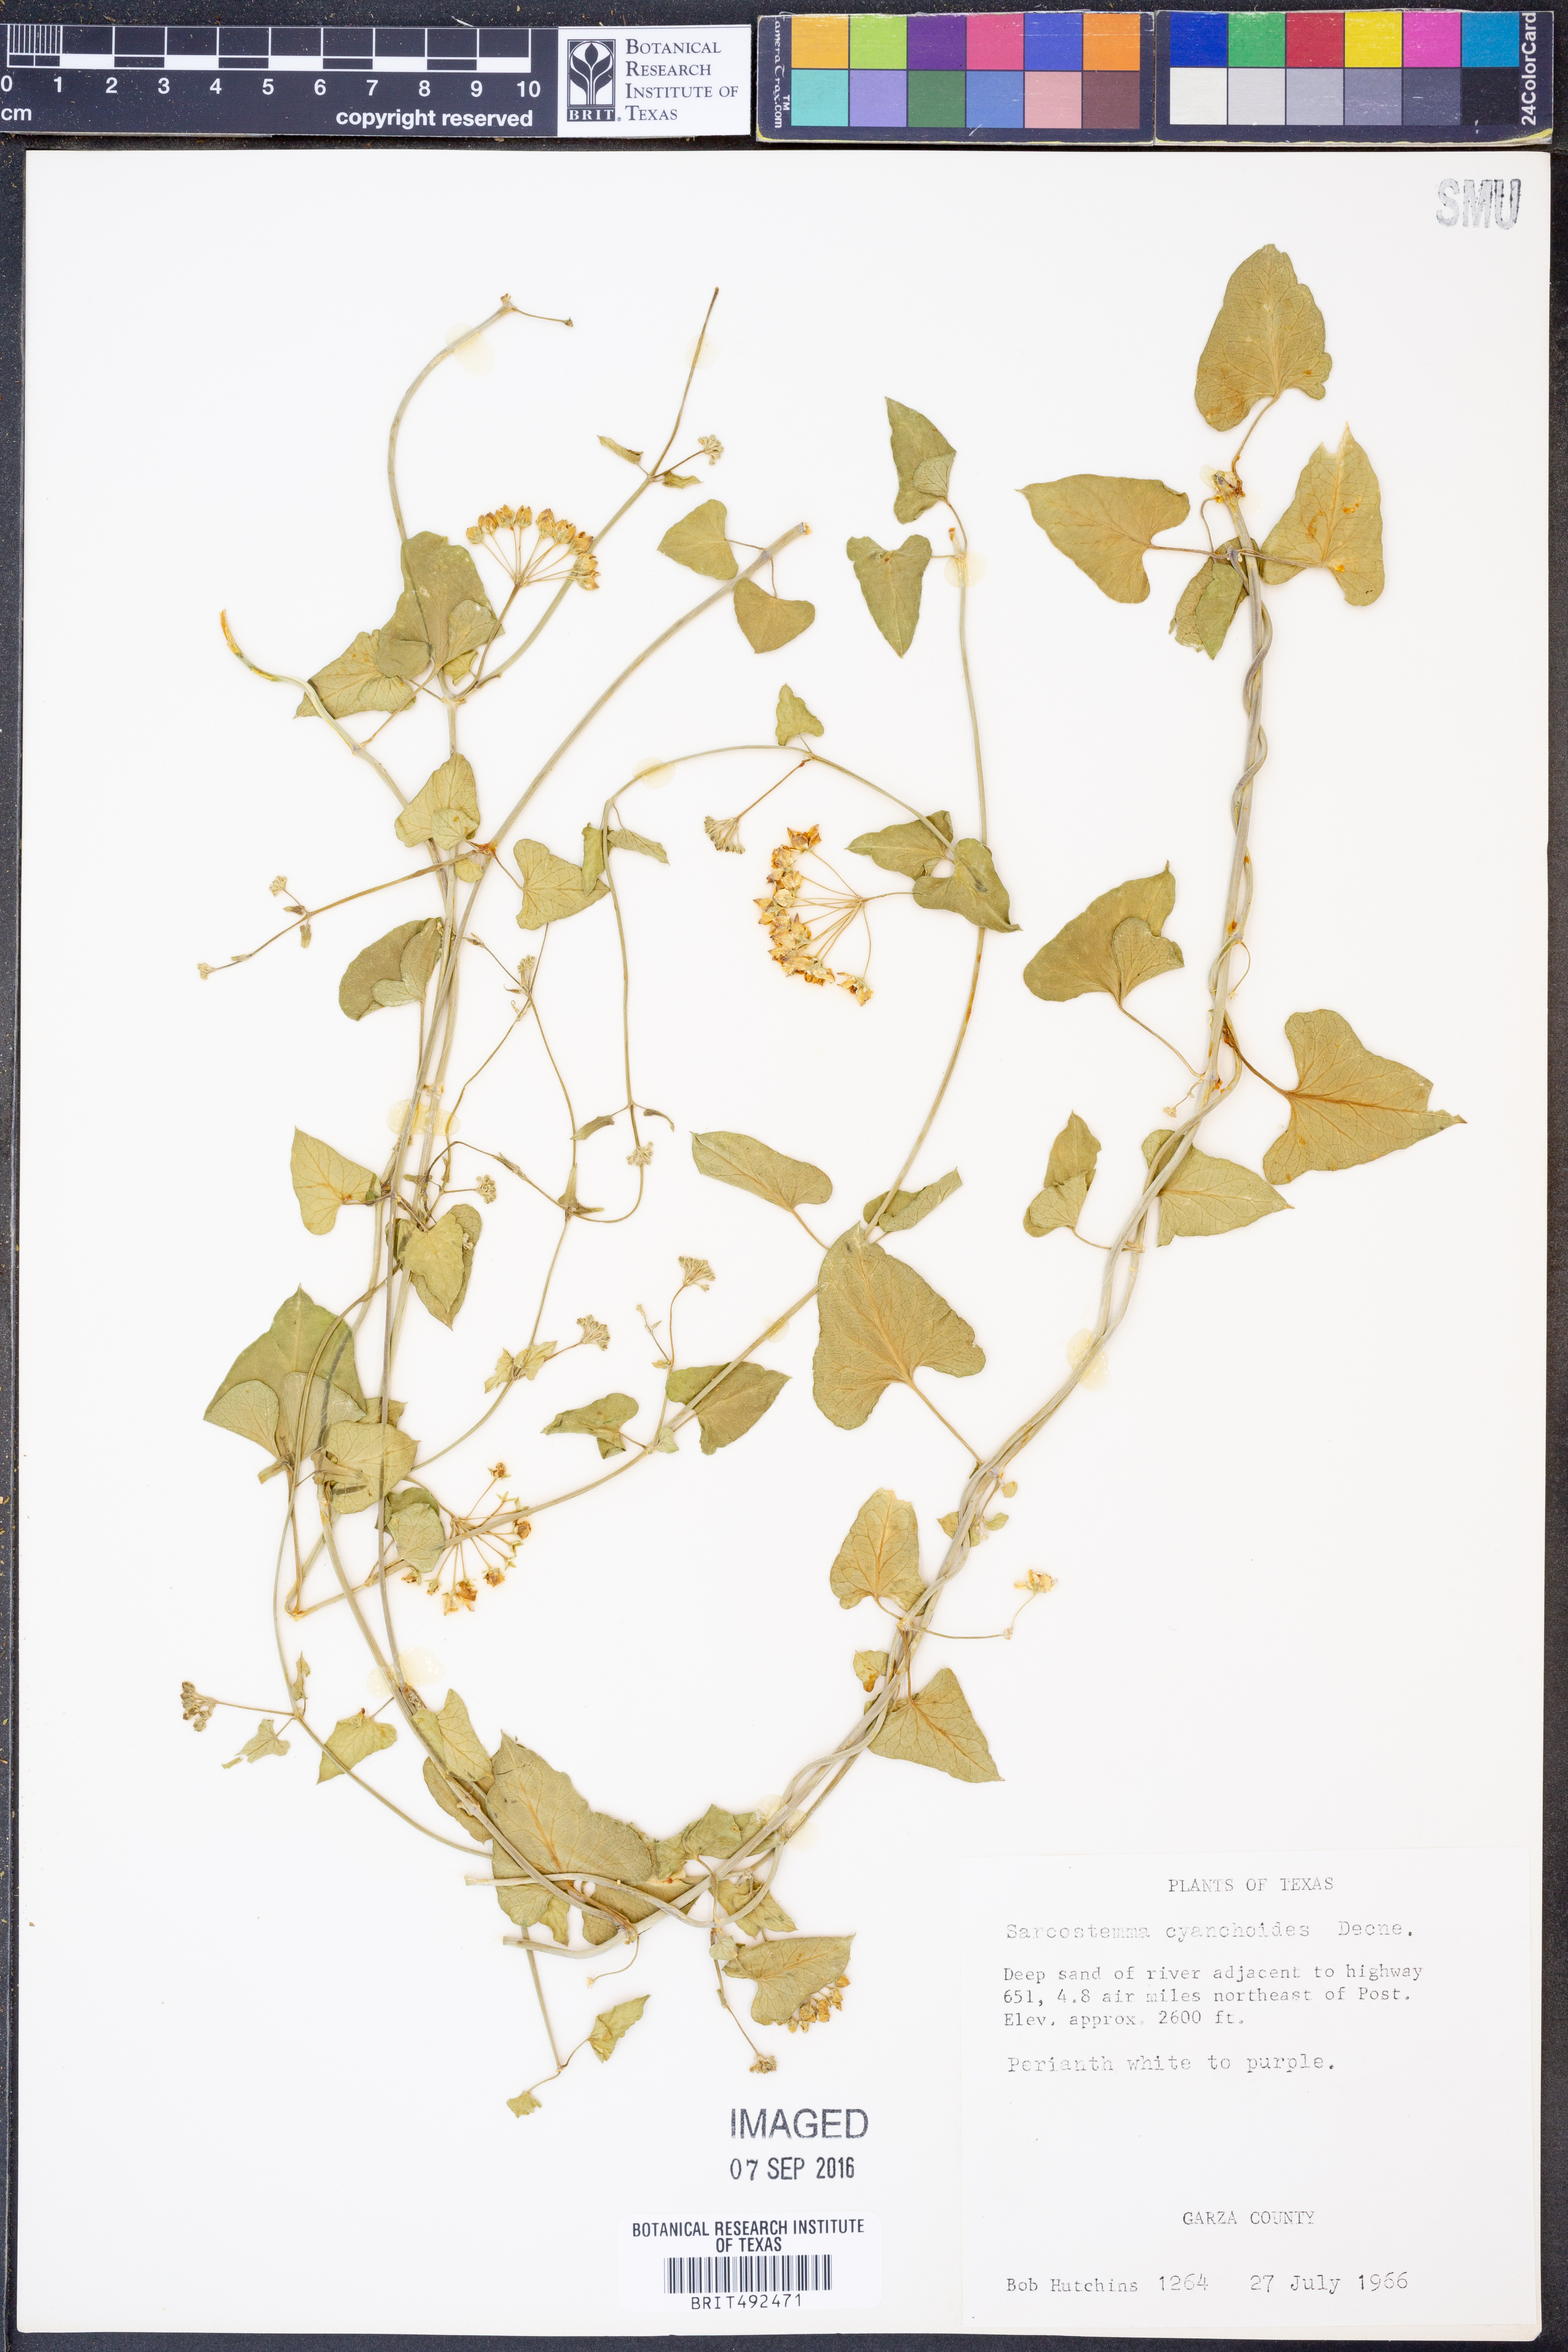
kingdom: Plantae
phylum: Tracheophyta
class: Magnoliopsida
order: Gentianales
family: Apocynaceae
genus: Funastrum
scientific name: Funastrum cynanchoides
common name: Climbing-milkweed
